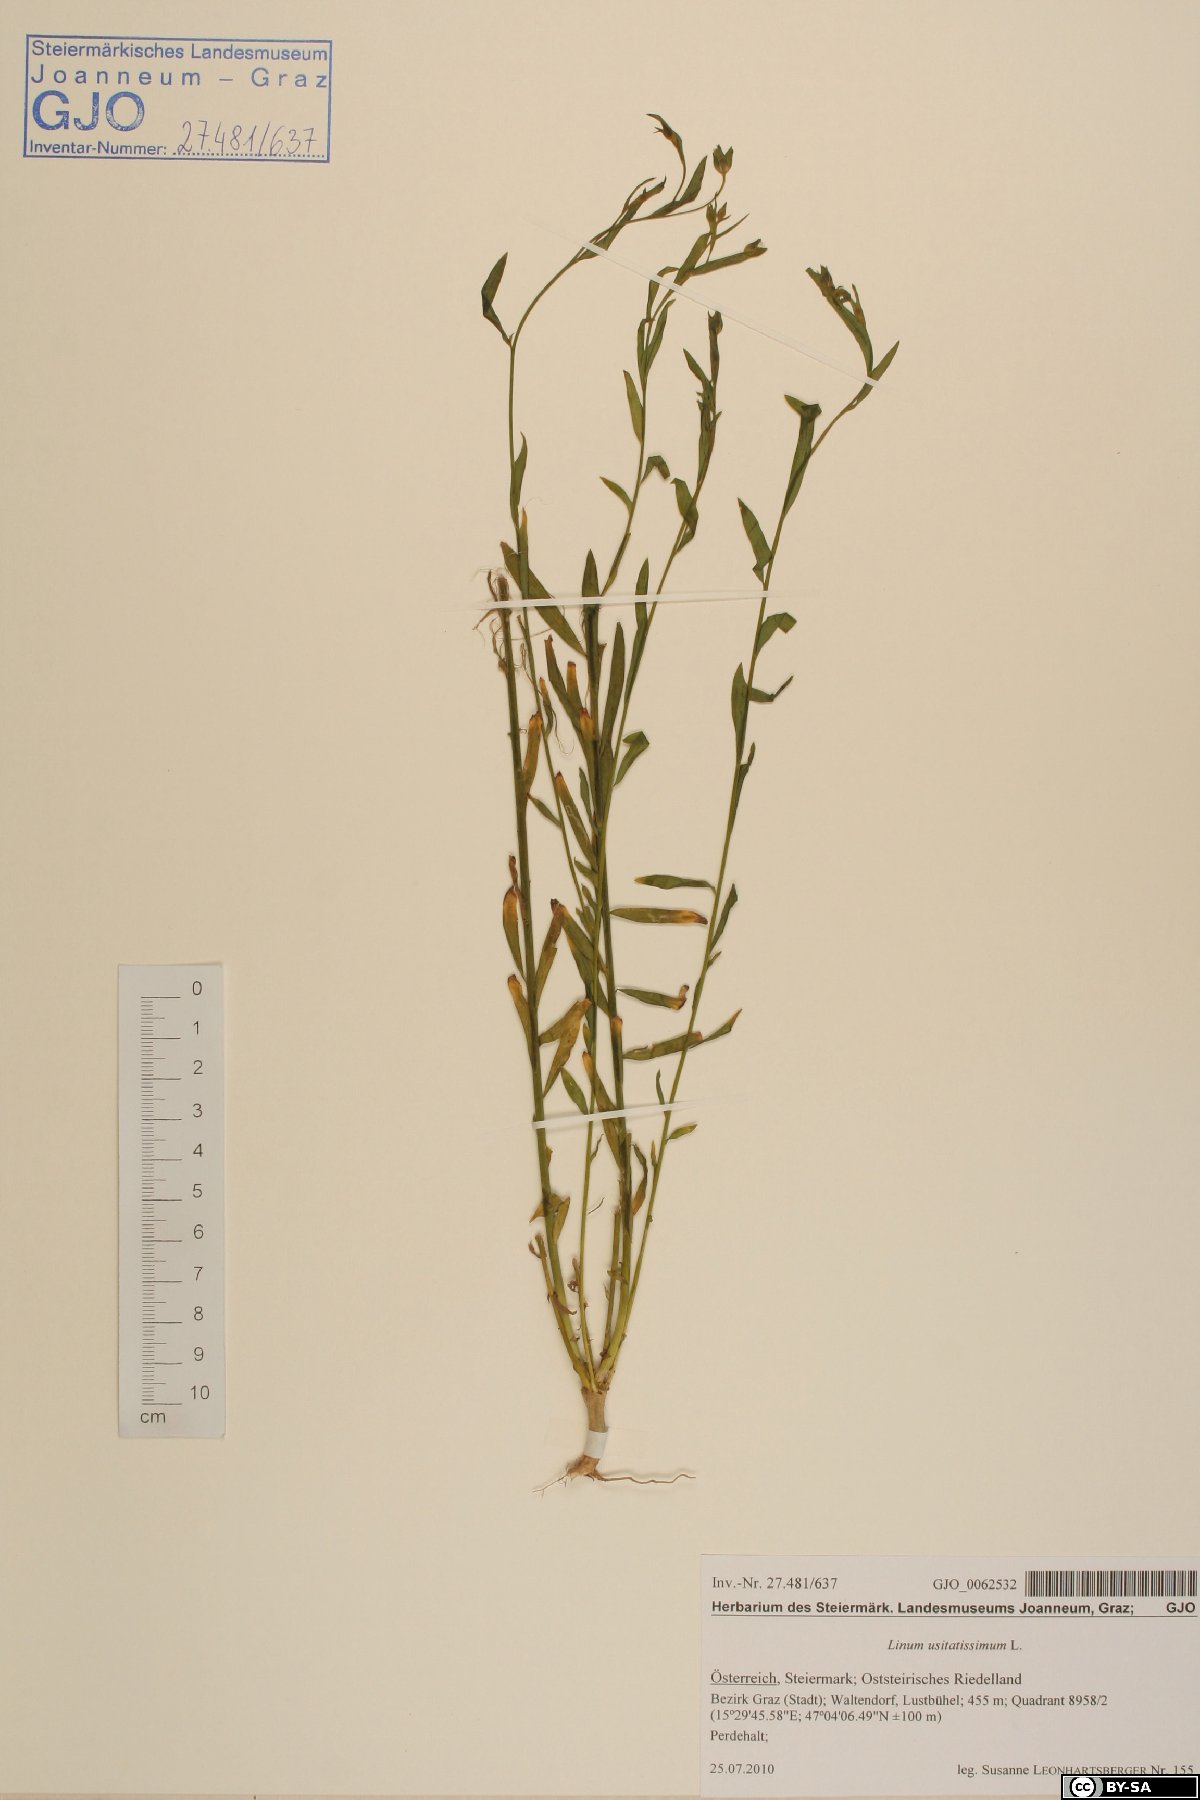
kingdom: Plantae
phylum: Tracheophyta
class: Magnoliopsida
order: Malpighiales
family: Linaceae
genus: Linum
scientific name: Linum usitatissimum
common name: Flax
